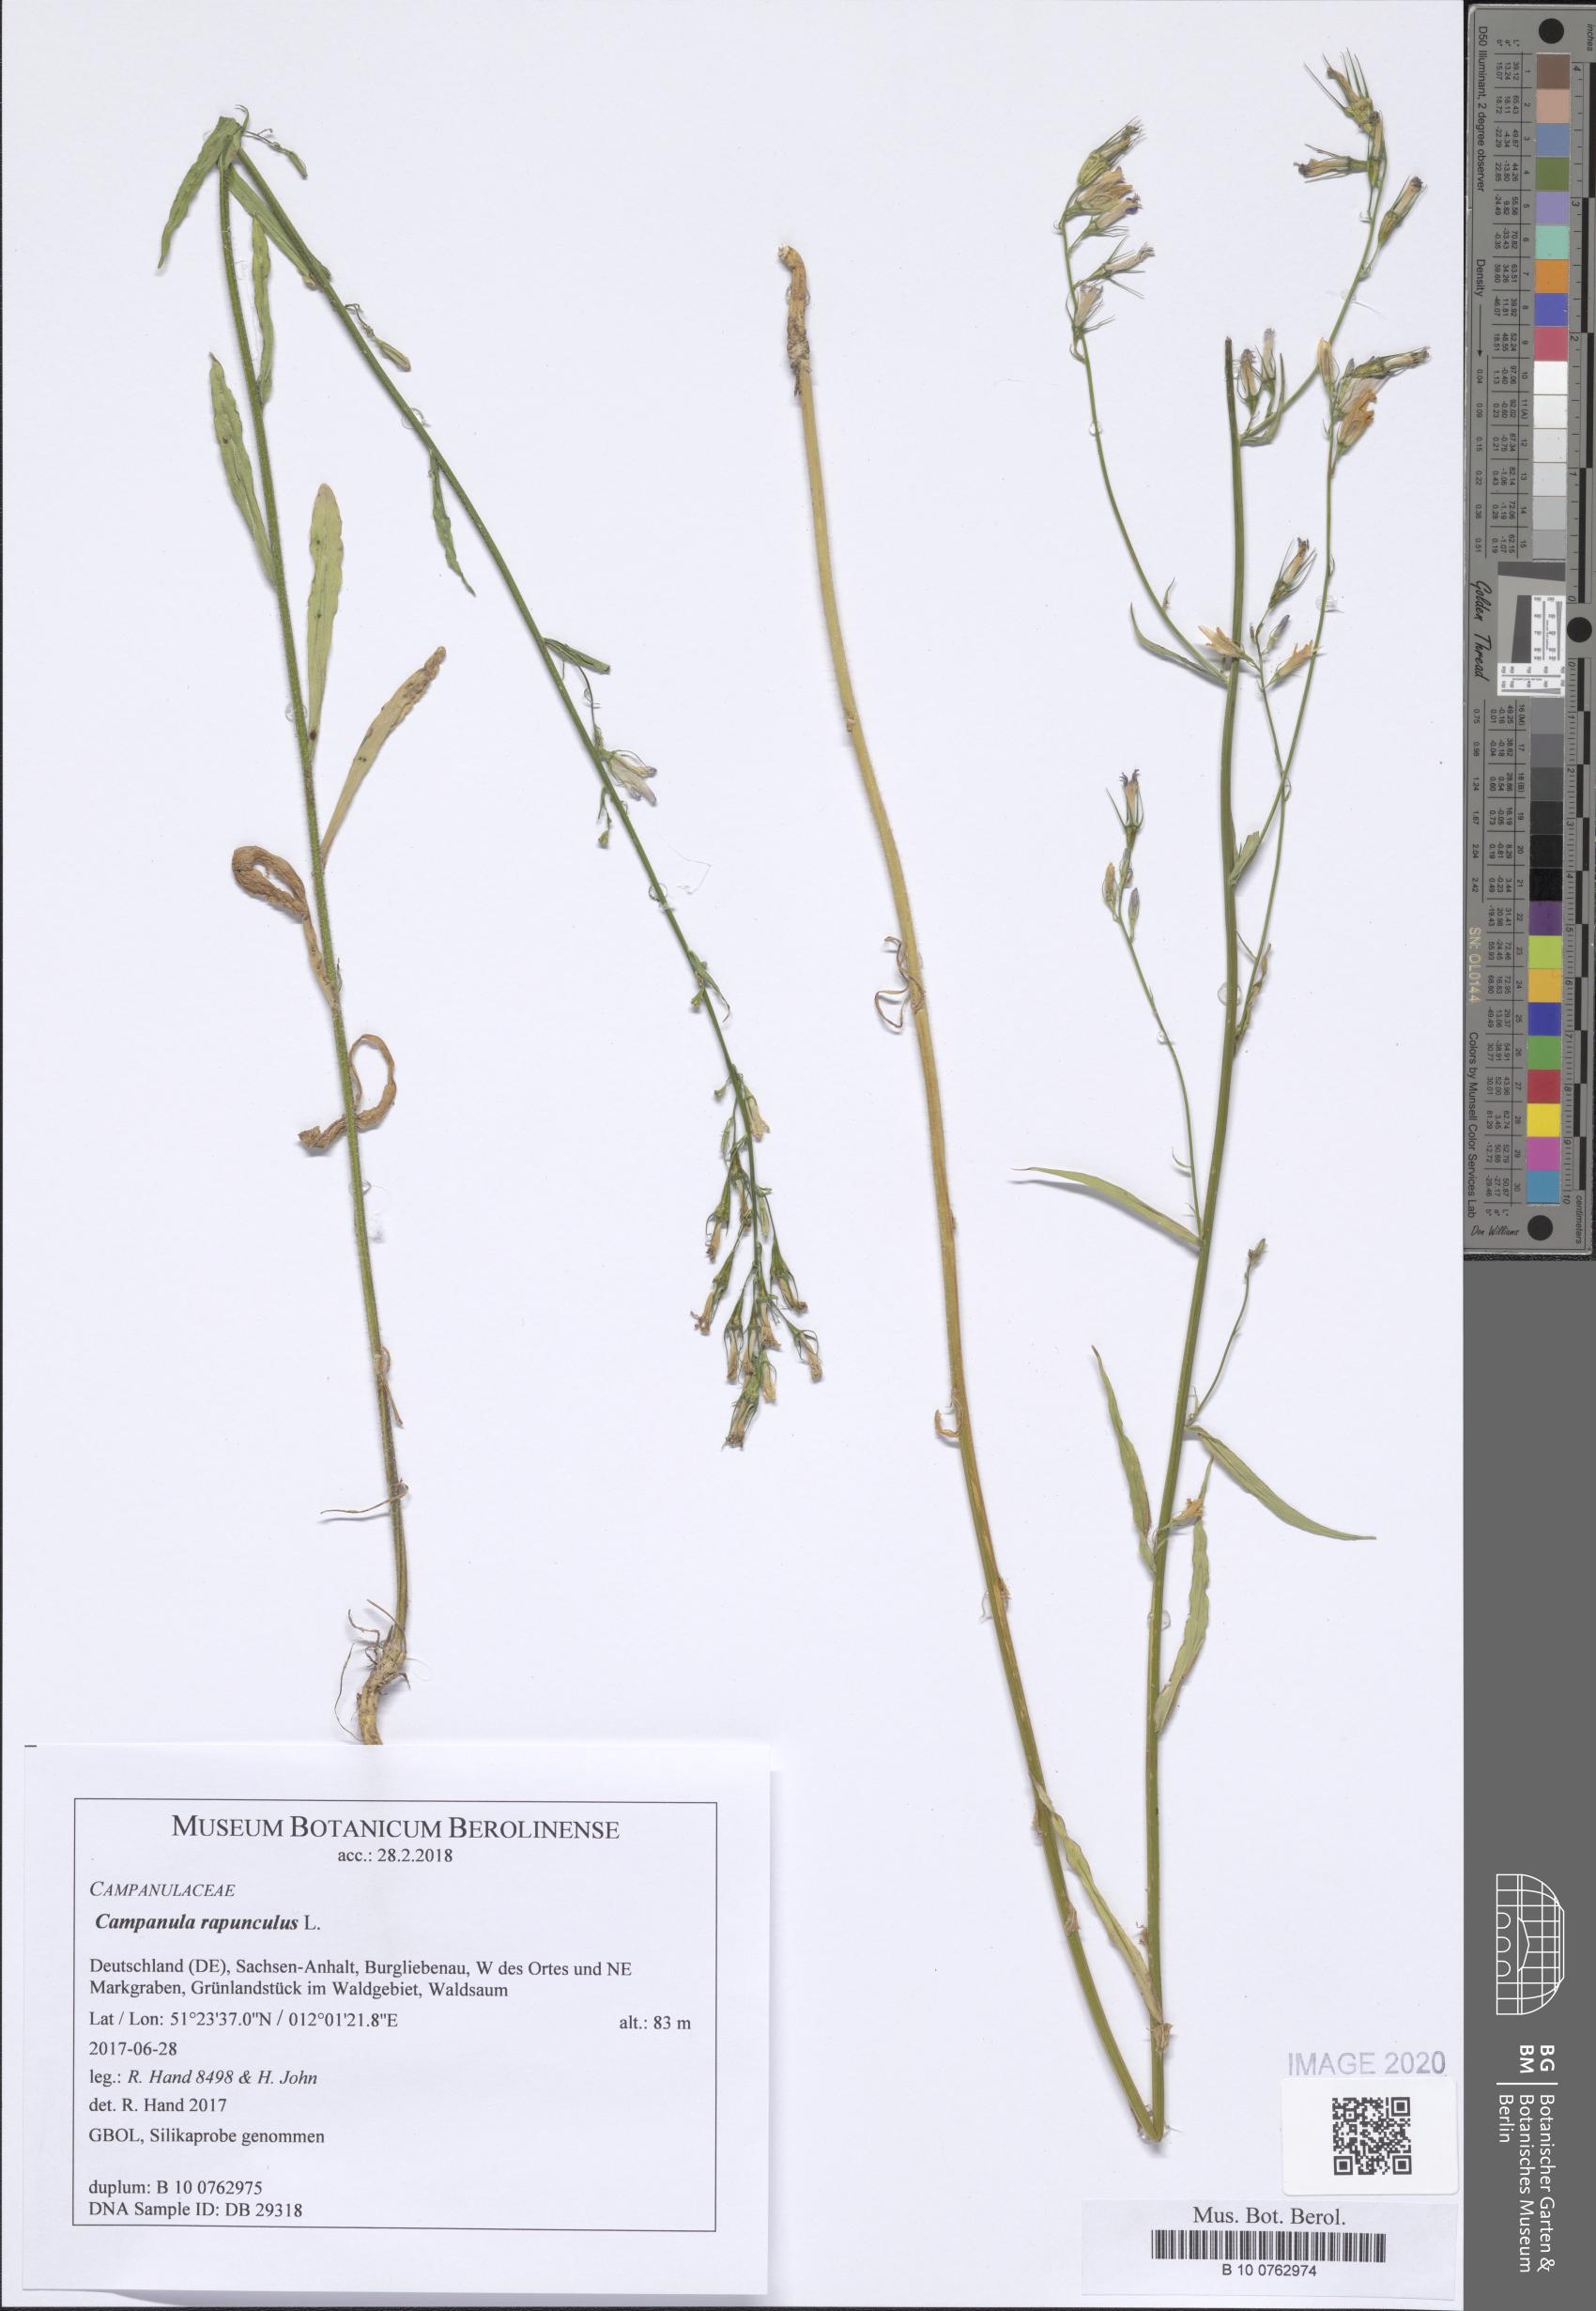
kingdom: Plantae
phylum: Tracheophyta
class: Magnoliopsida
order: Asterales
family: Campanulaceae
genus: Campanula
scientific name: Campanula rapunculus
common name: Rampion bellflower
